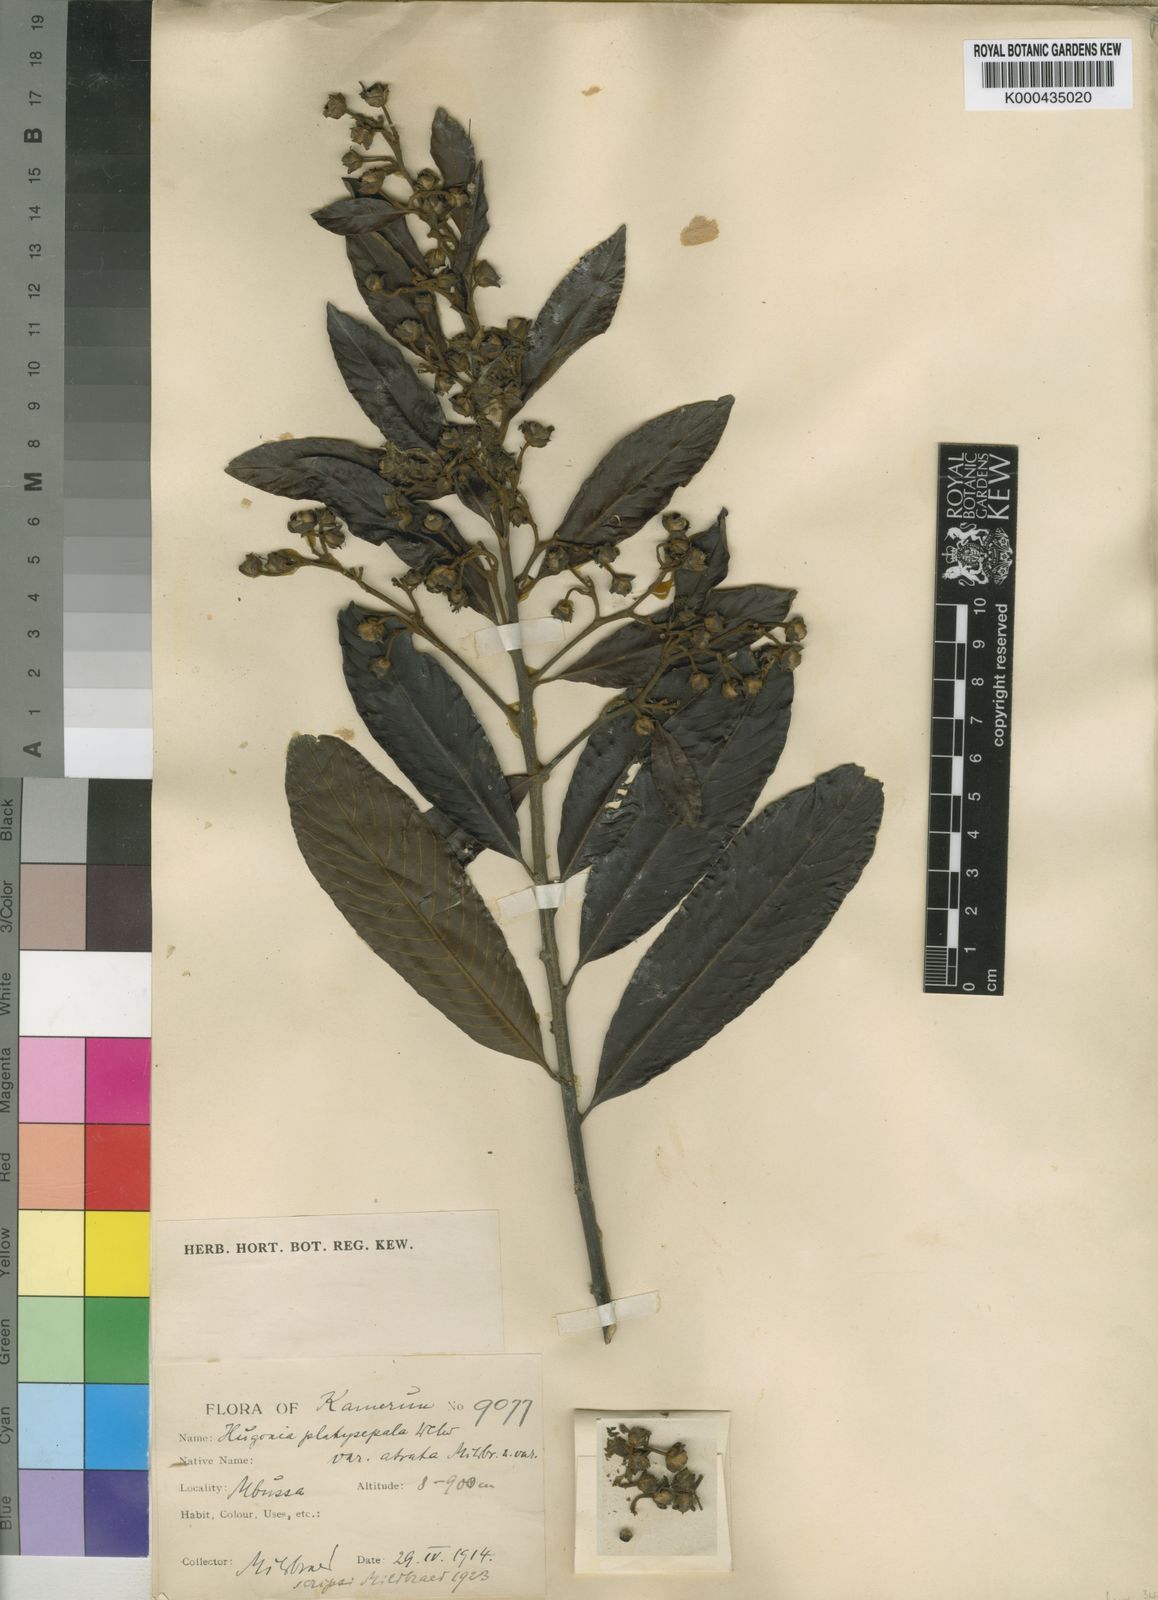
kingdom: Plantae
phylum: Tracheophyta
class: Magnoliopsida
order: Malpighiales
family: Linaceae
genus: Hugonia
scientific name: Hugonia platysepala
